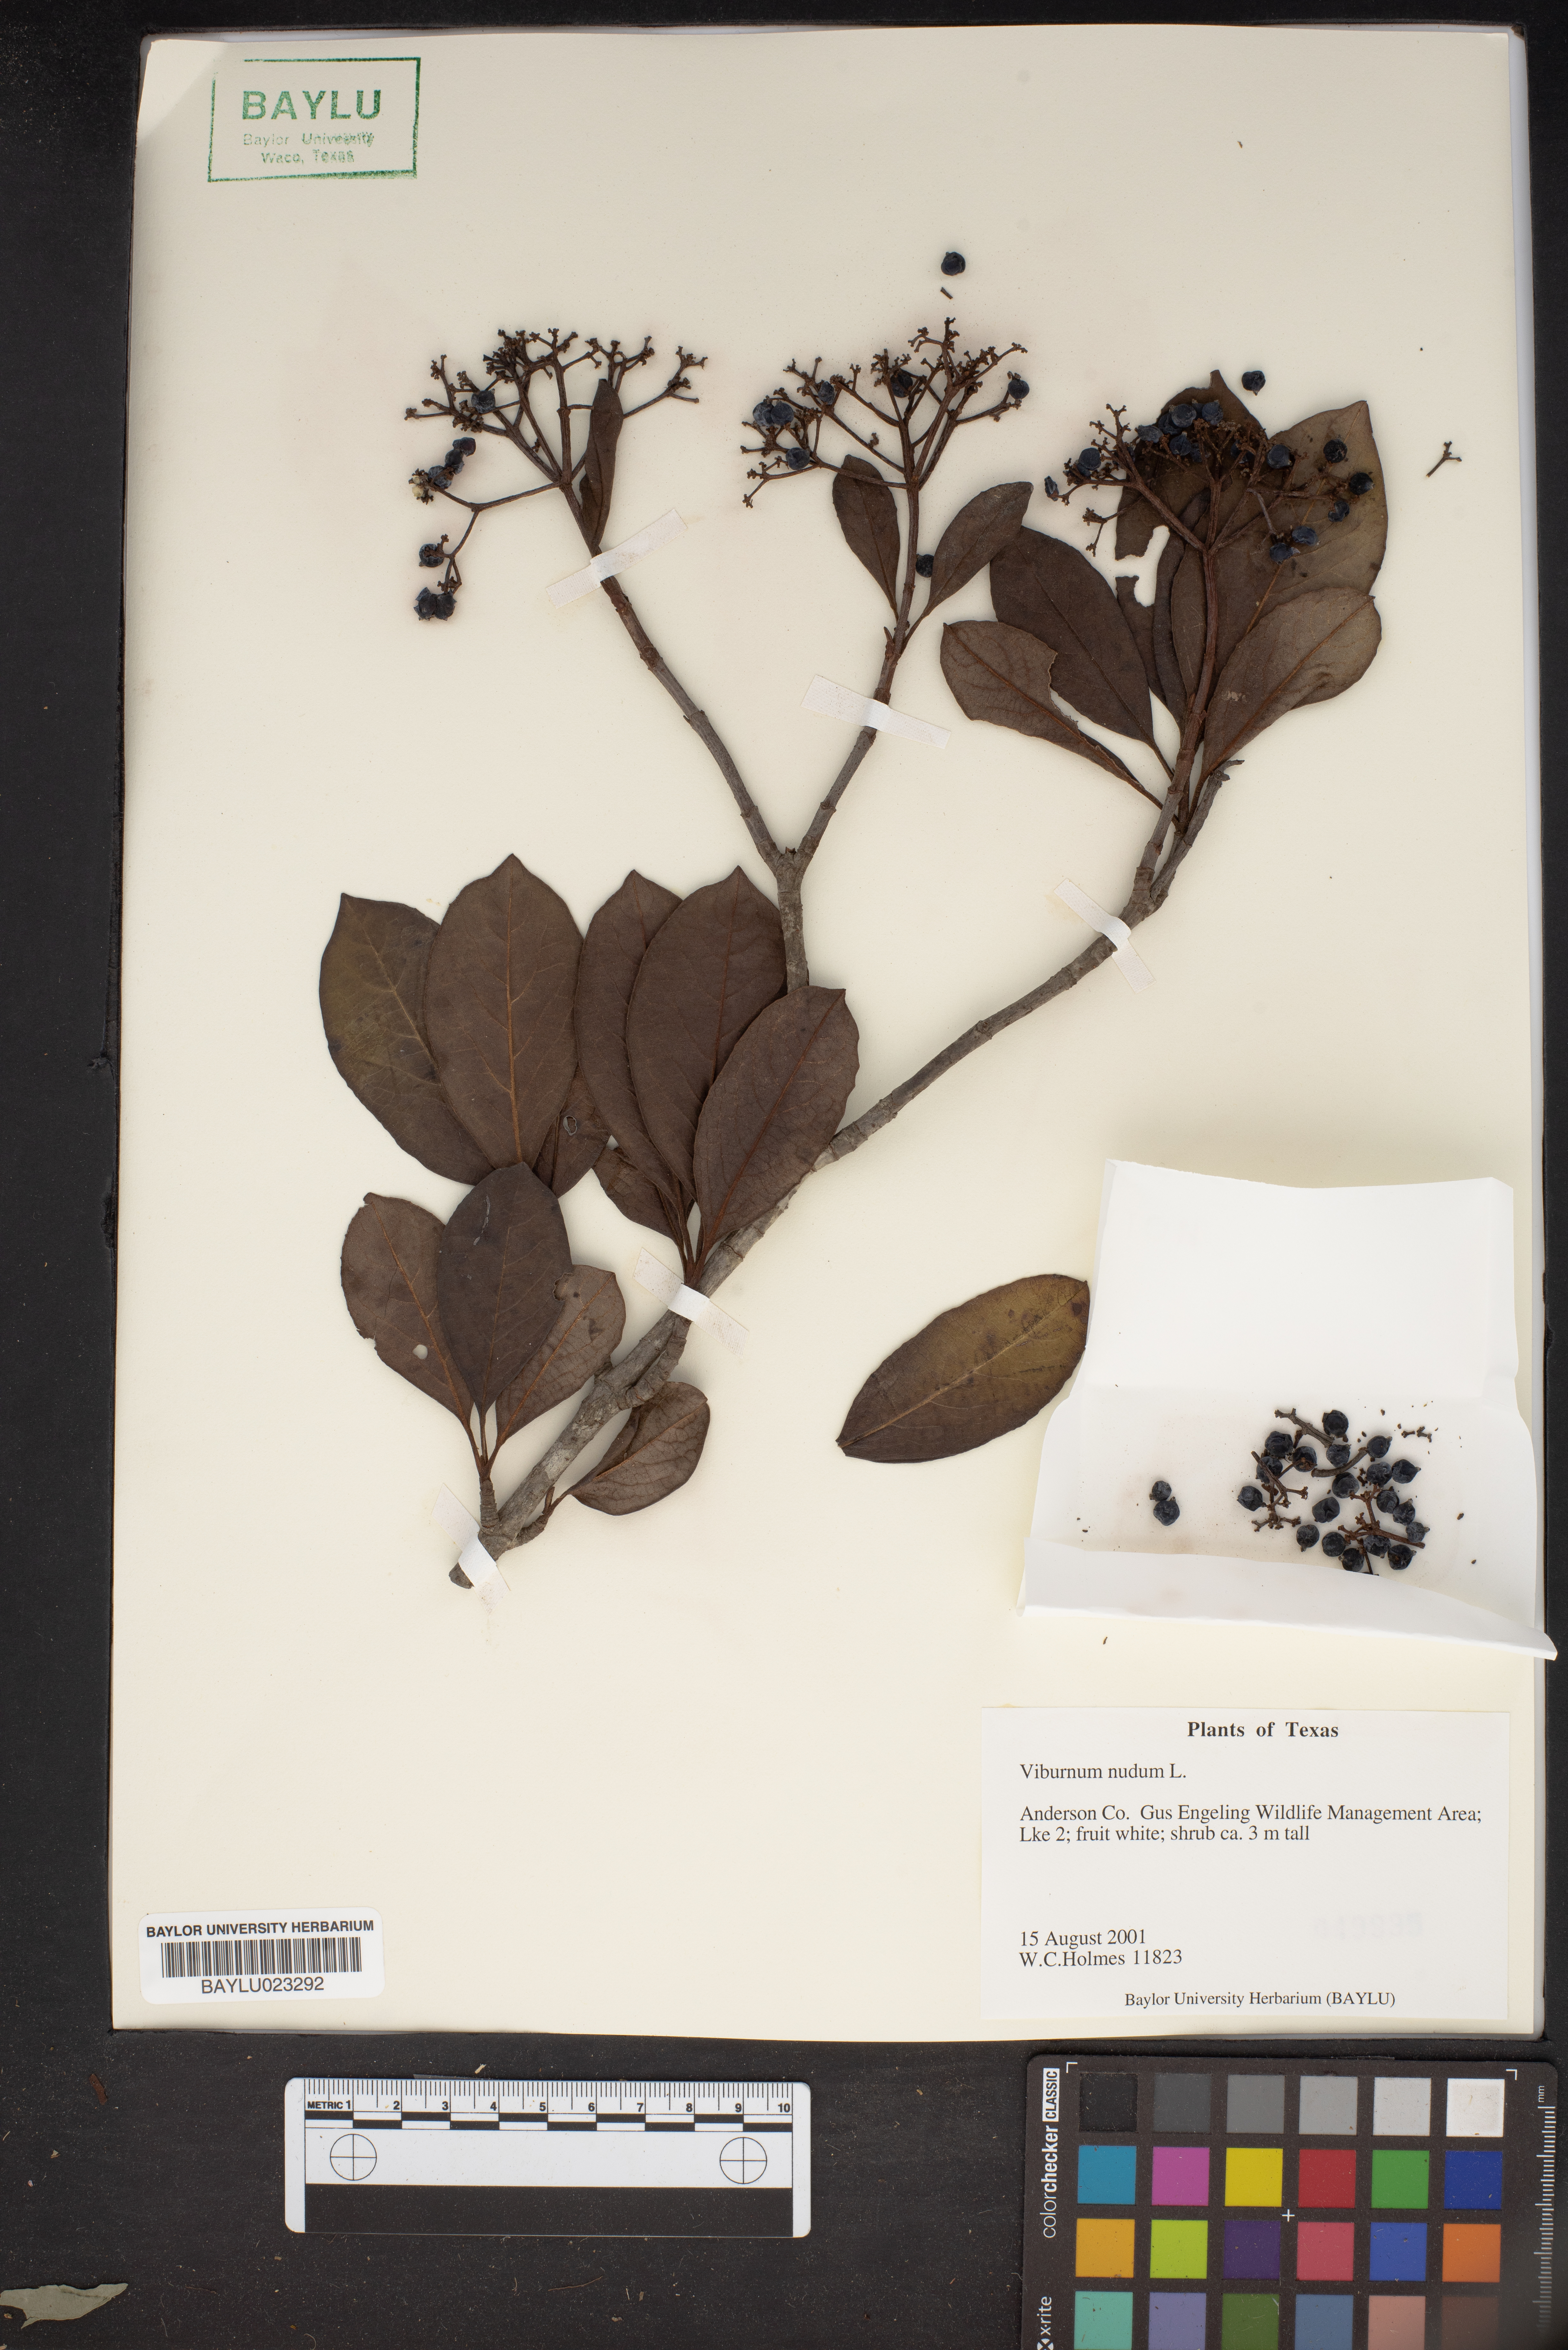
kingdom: Plantae
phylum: Tracheophyta
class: Magnoliopsida
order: Dipsacales
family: Viburnaceae
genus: Viburnum
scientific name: Viburnum nudum
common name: Possum haw
